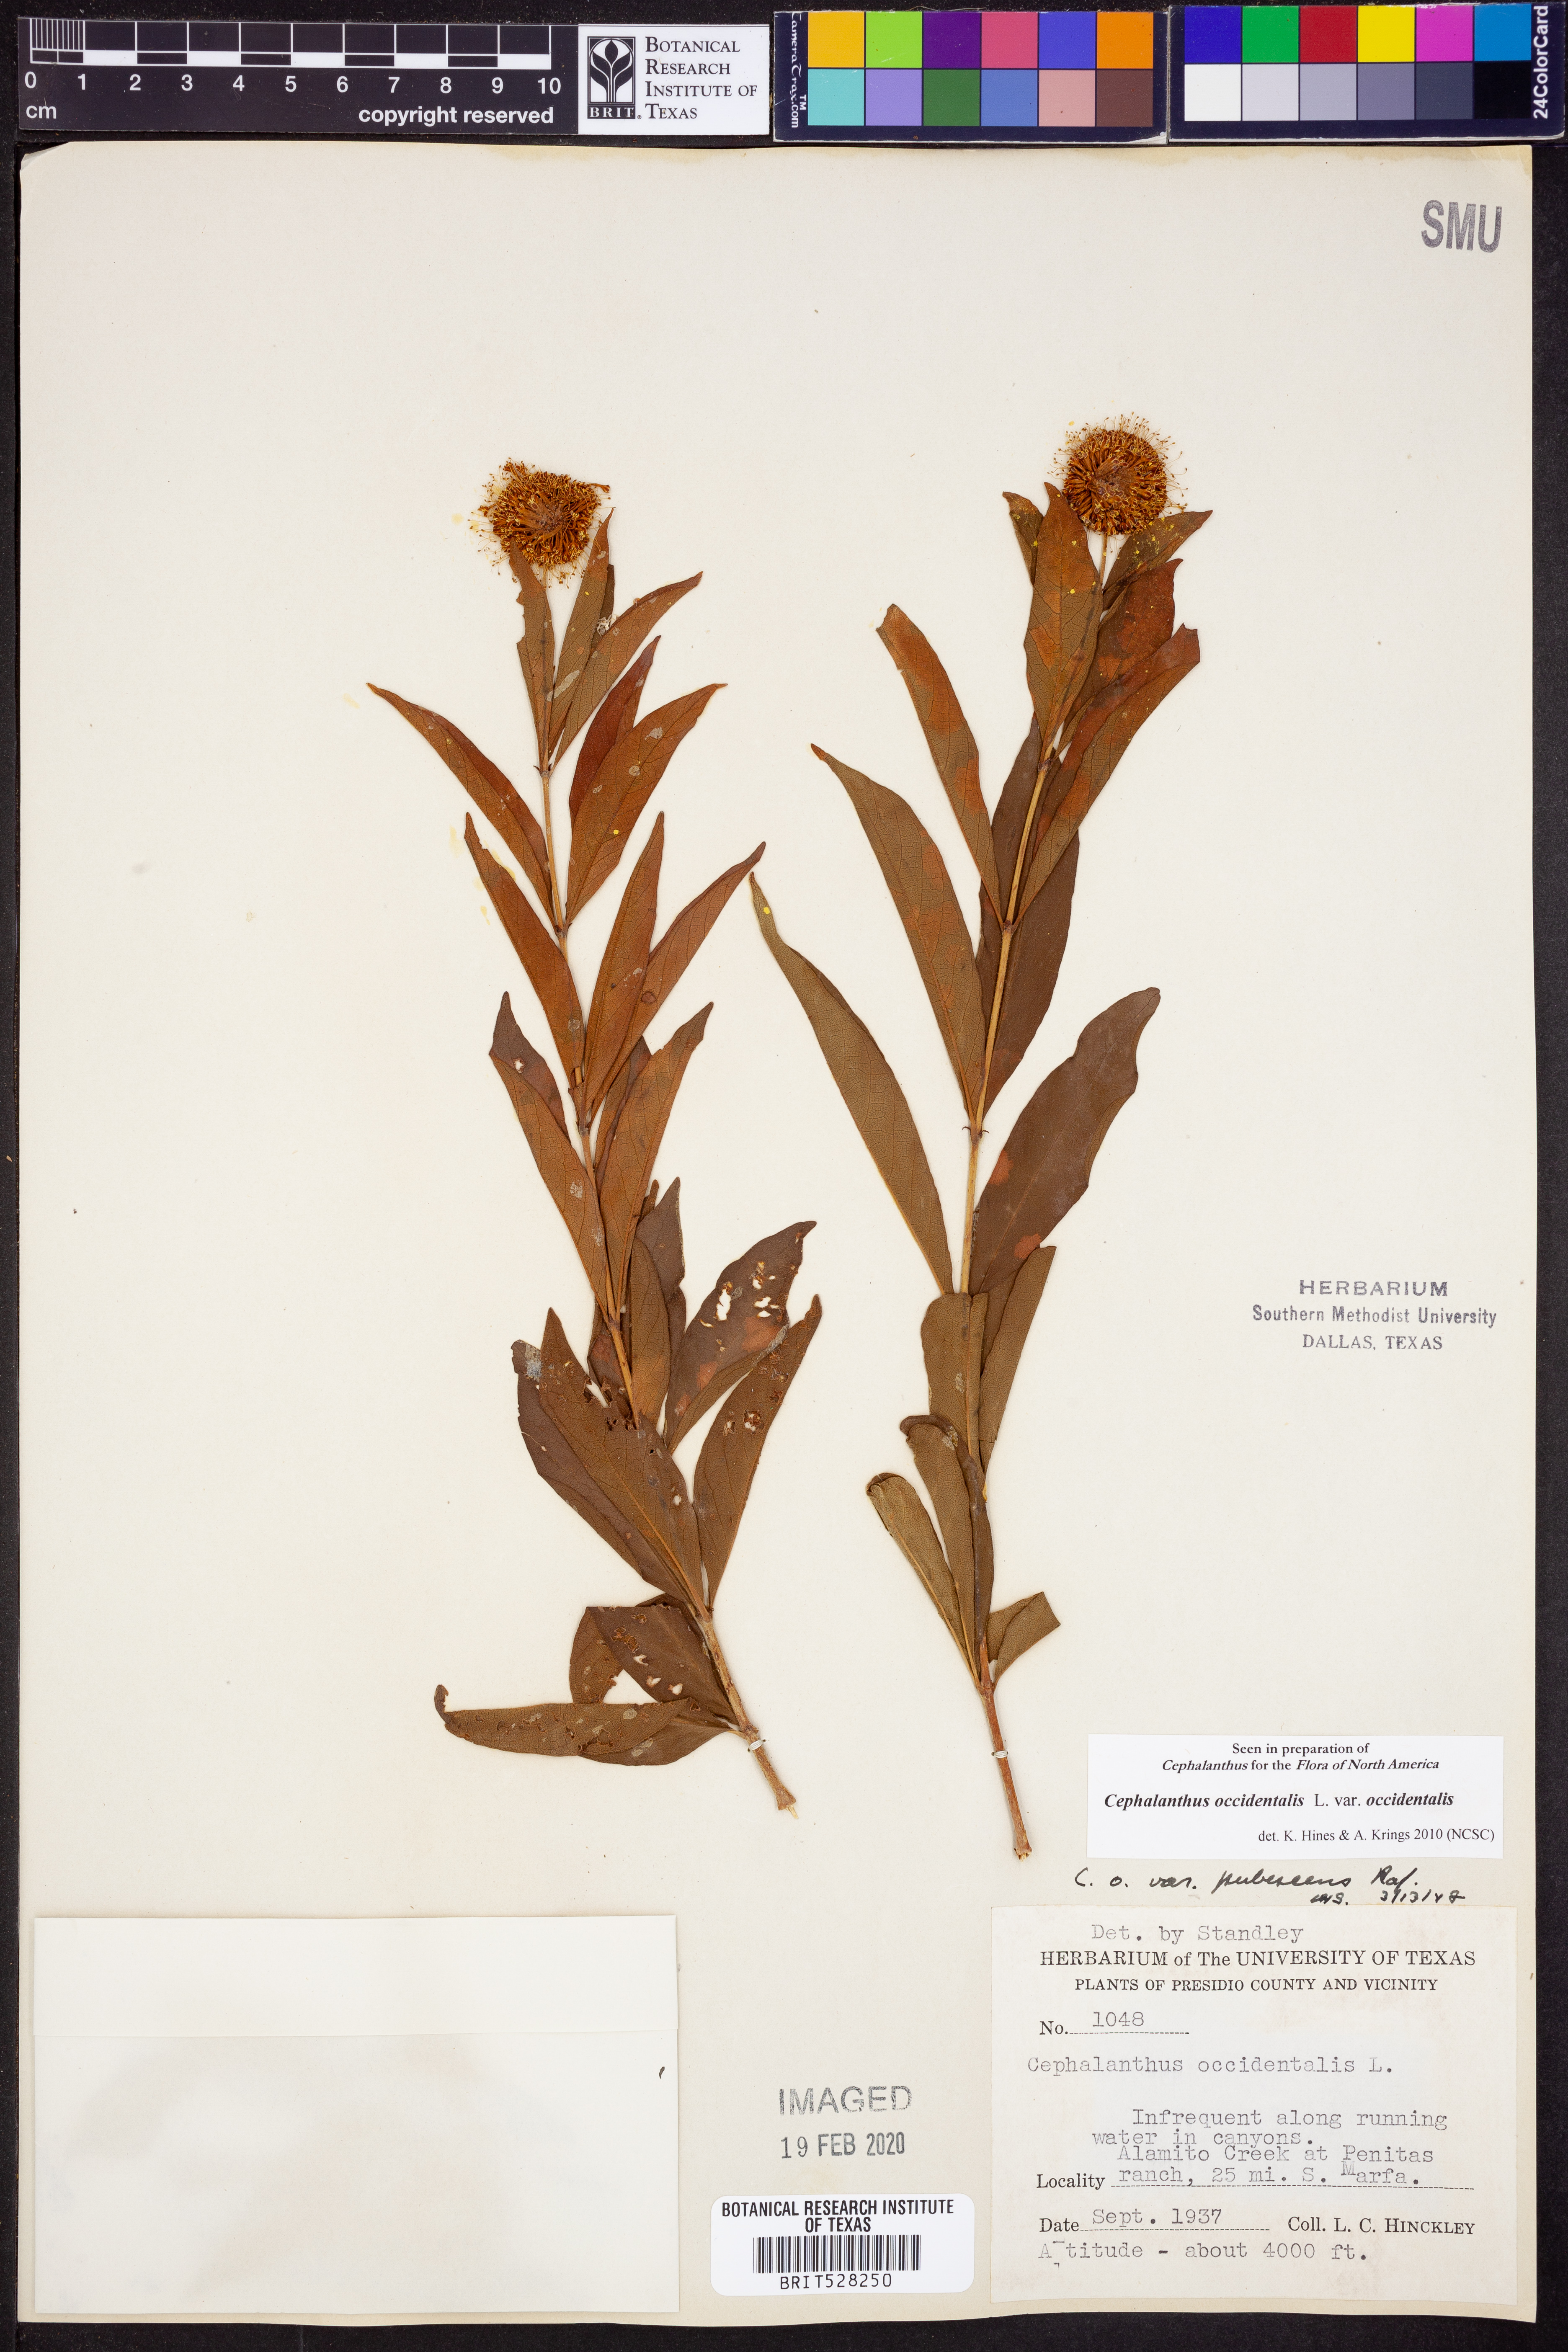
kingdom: Plantae
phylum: Tracheophyta
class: Magnoliopsida
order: Gentianales
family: Rubiaceae
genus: Cephalanthus
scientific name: Cephalanthus occidentalis
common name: Button-willow
